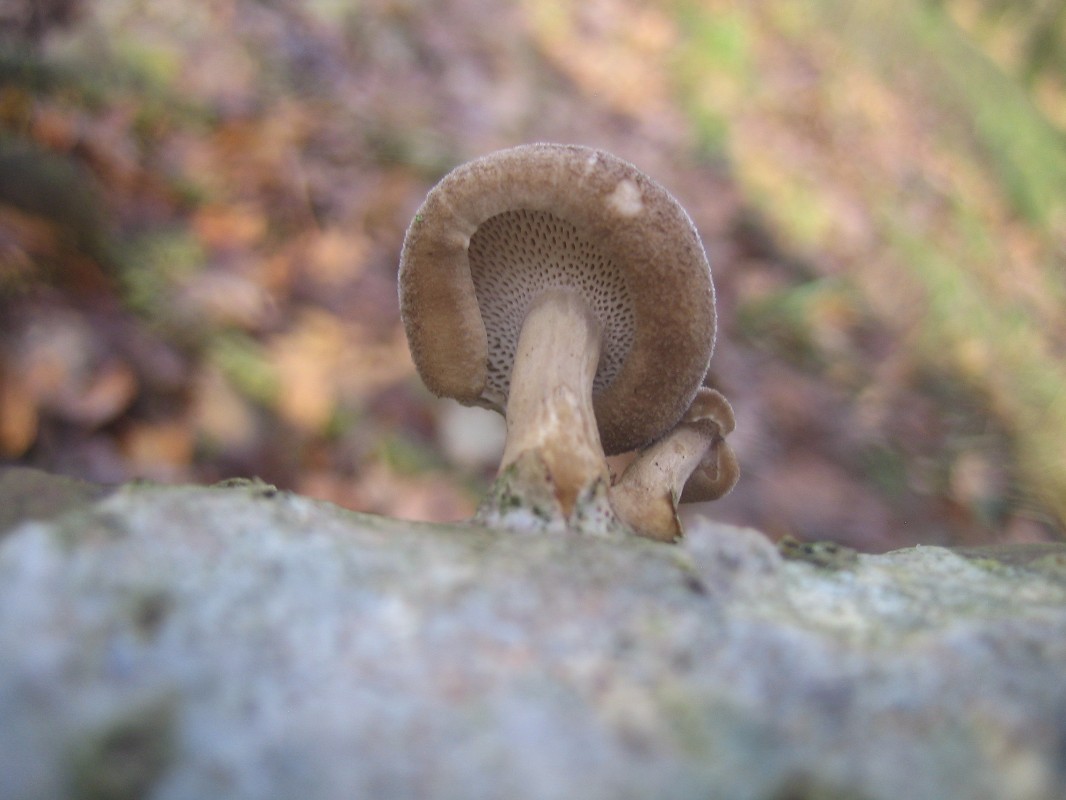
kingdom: Fungi
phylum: Basidiomycota
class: Agaricomycetes
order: Polyporales
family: Polyporaceae
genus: Lentinus
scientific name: Lentinus brumalis
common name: vinter-stilkporesvamp
